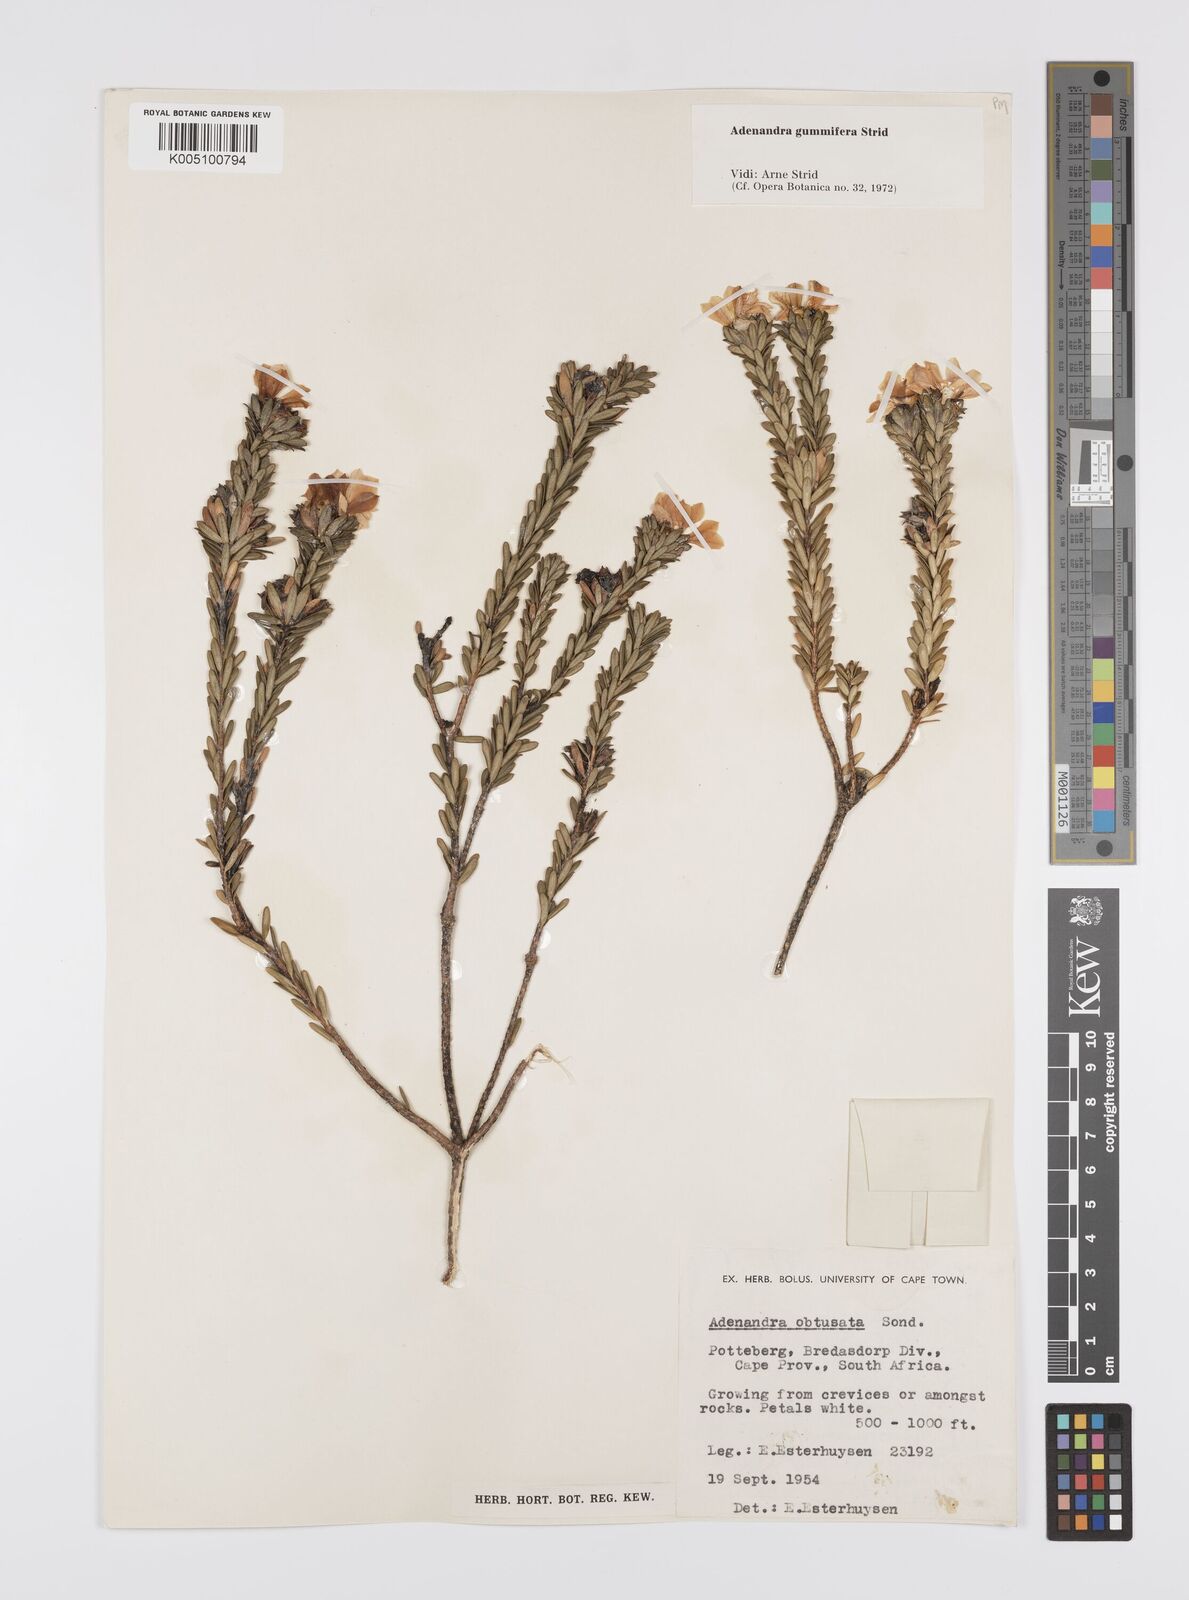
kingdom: Plantae
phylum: Tracheophyta
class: Magnoliopsida
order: Sapindales
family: Rutaceae
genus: Adenandra
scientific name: Adenandra gummifera
